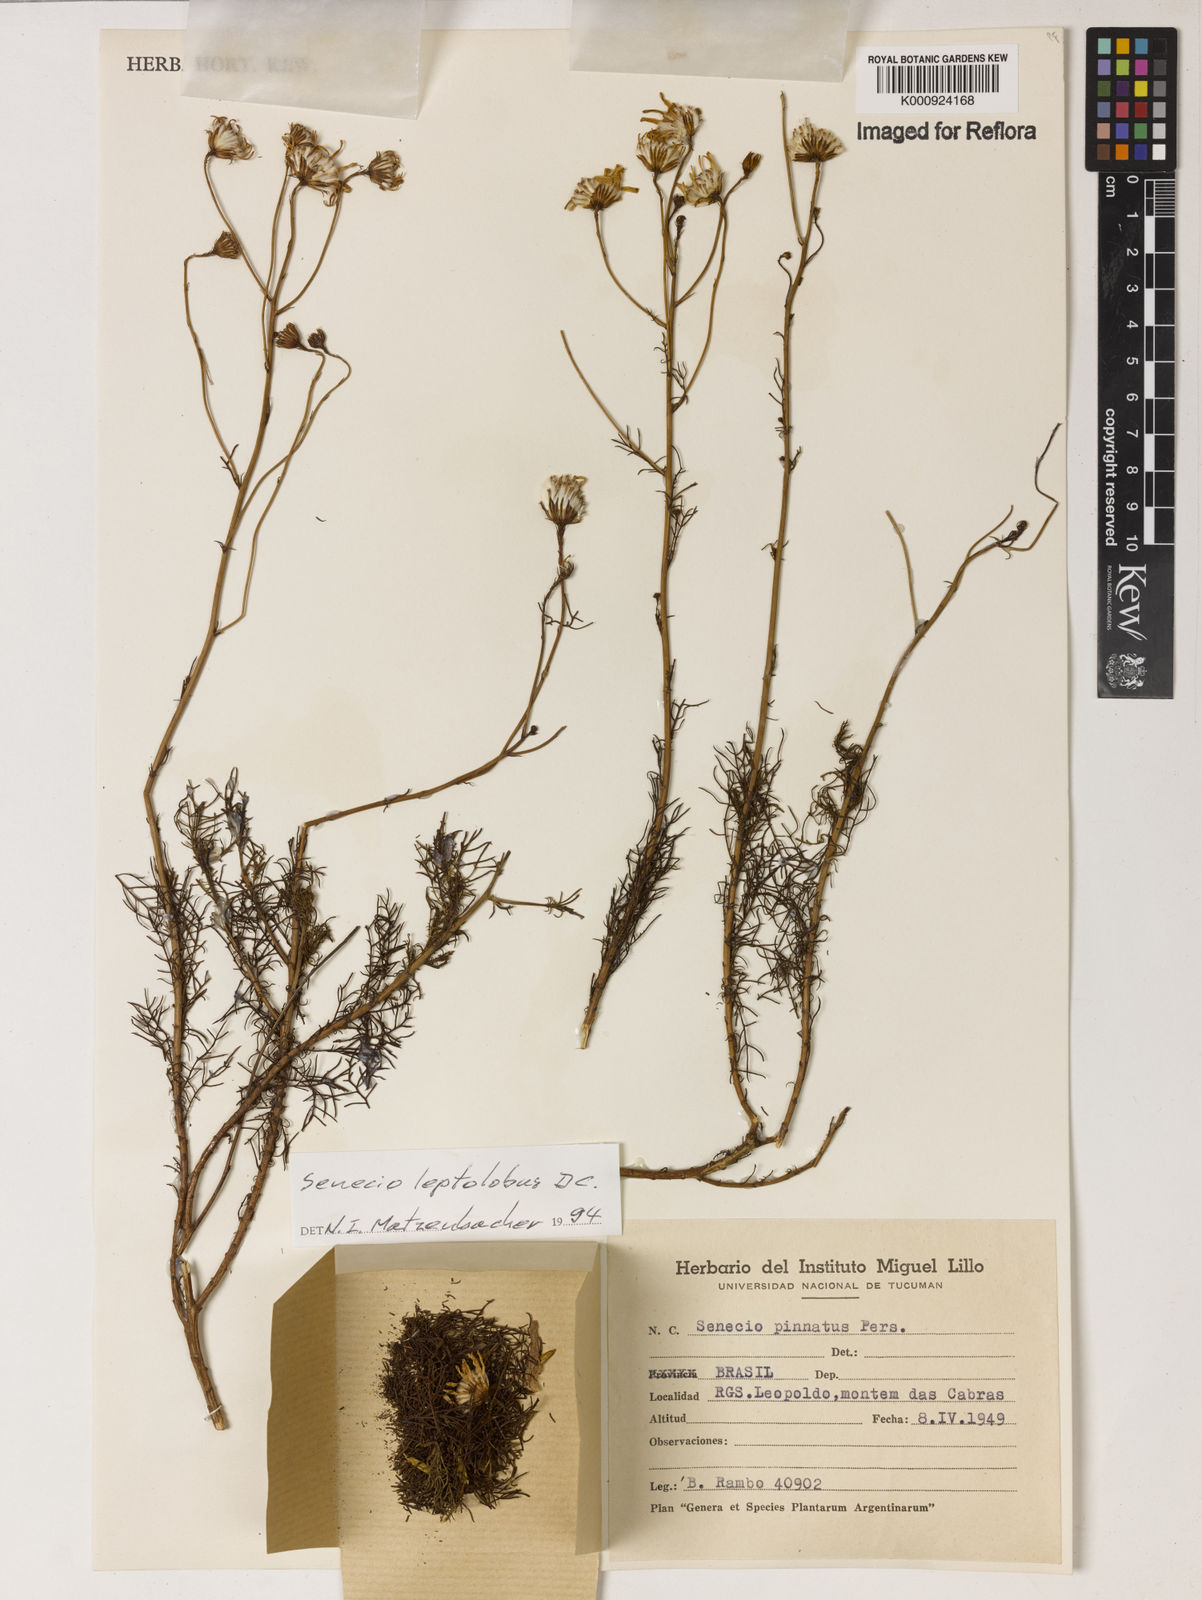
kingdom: Plantae
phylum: Tracheophyta
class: Magnoliopsida
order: Asterales
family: Asteraceae
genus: Senecio
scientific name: Senecio leptolobus
